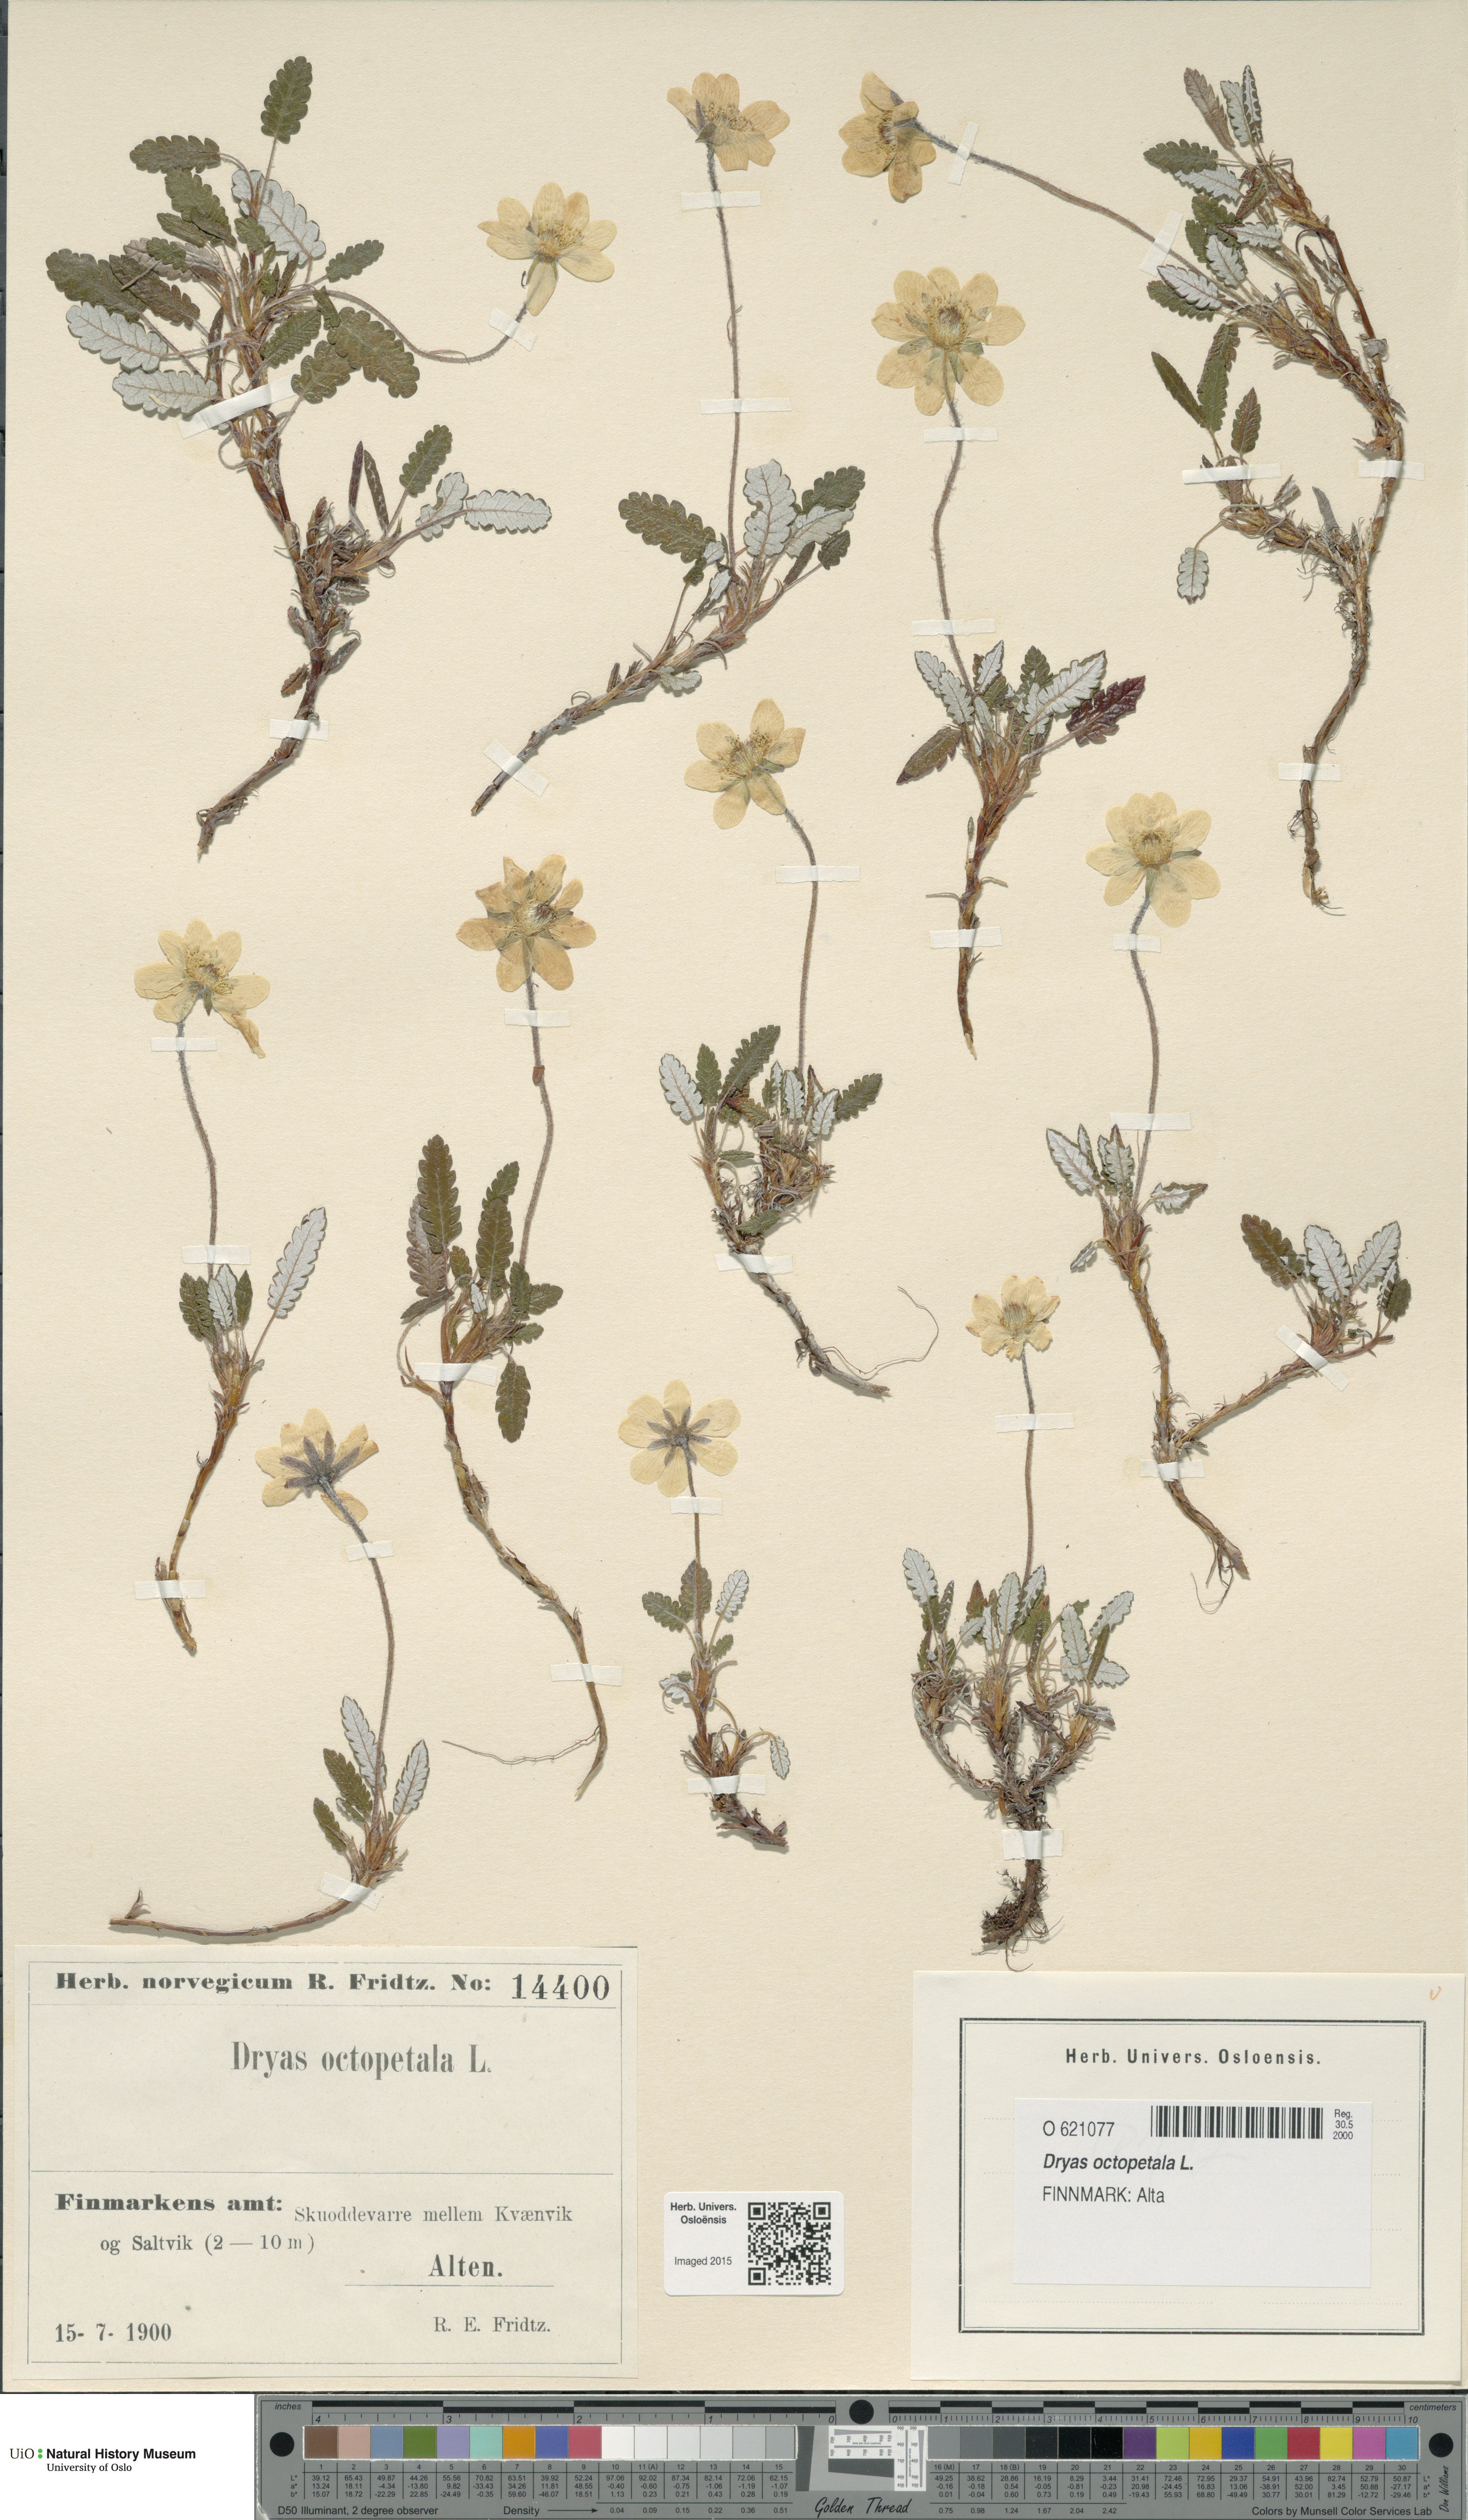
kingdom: Plantae
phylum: Tracheophyta
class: Magnoliopsida
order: Rosales
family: Rosaceae
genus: Dryas
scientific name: Dryas octopetala
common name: Eight-petal mountain-avens
